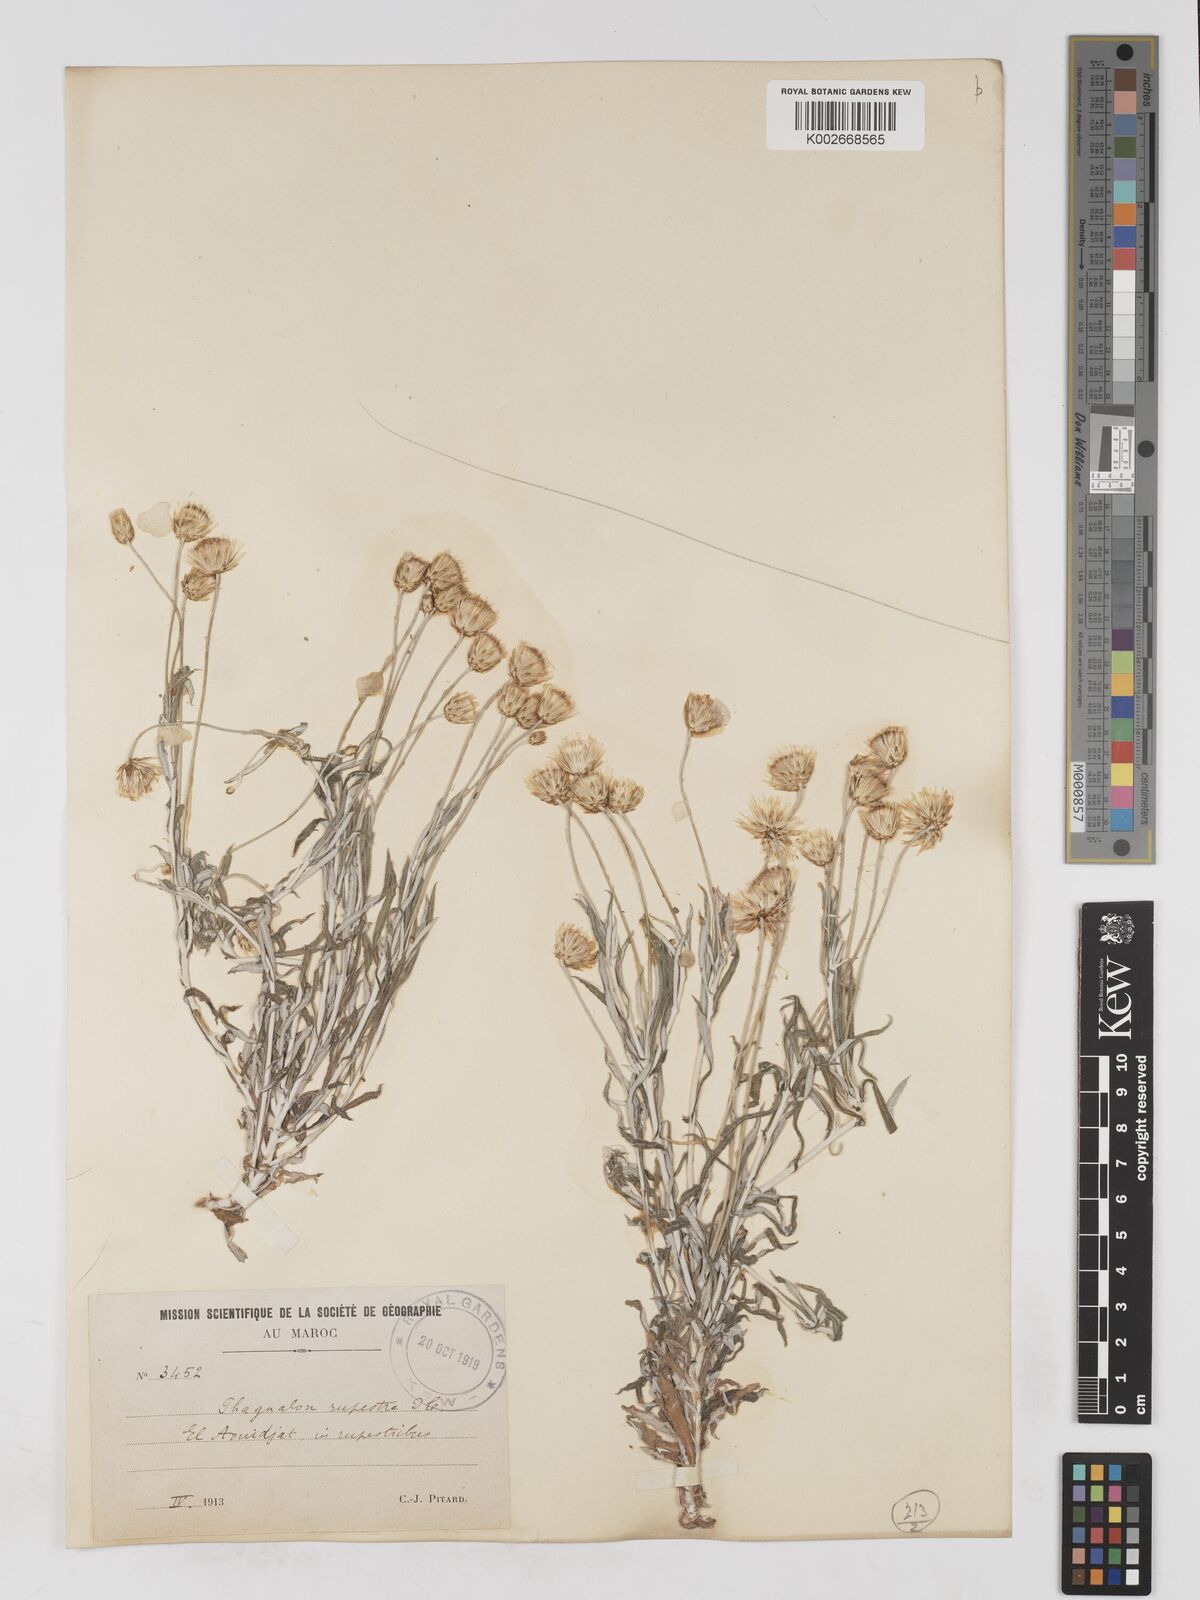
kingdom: Plantae
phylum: Tracheophyta
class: Magnoliopsida
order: Asterales
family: Asteraceae
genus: Phagnalon
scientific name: Phagnalon rupestre
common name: Rock phagnalon
